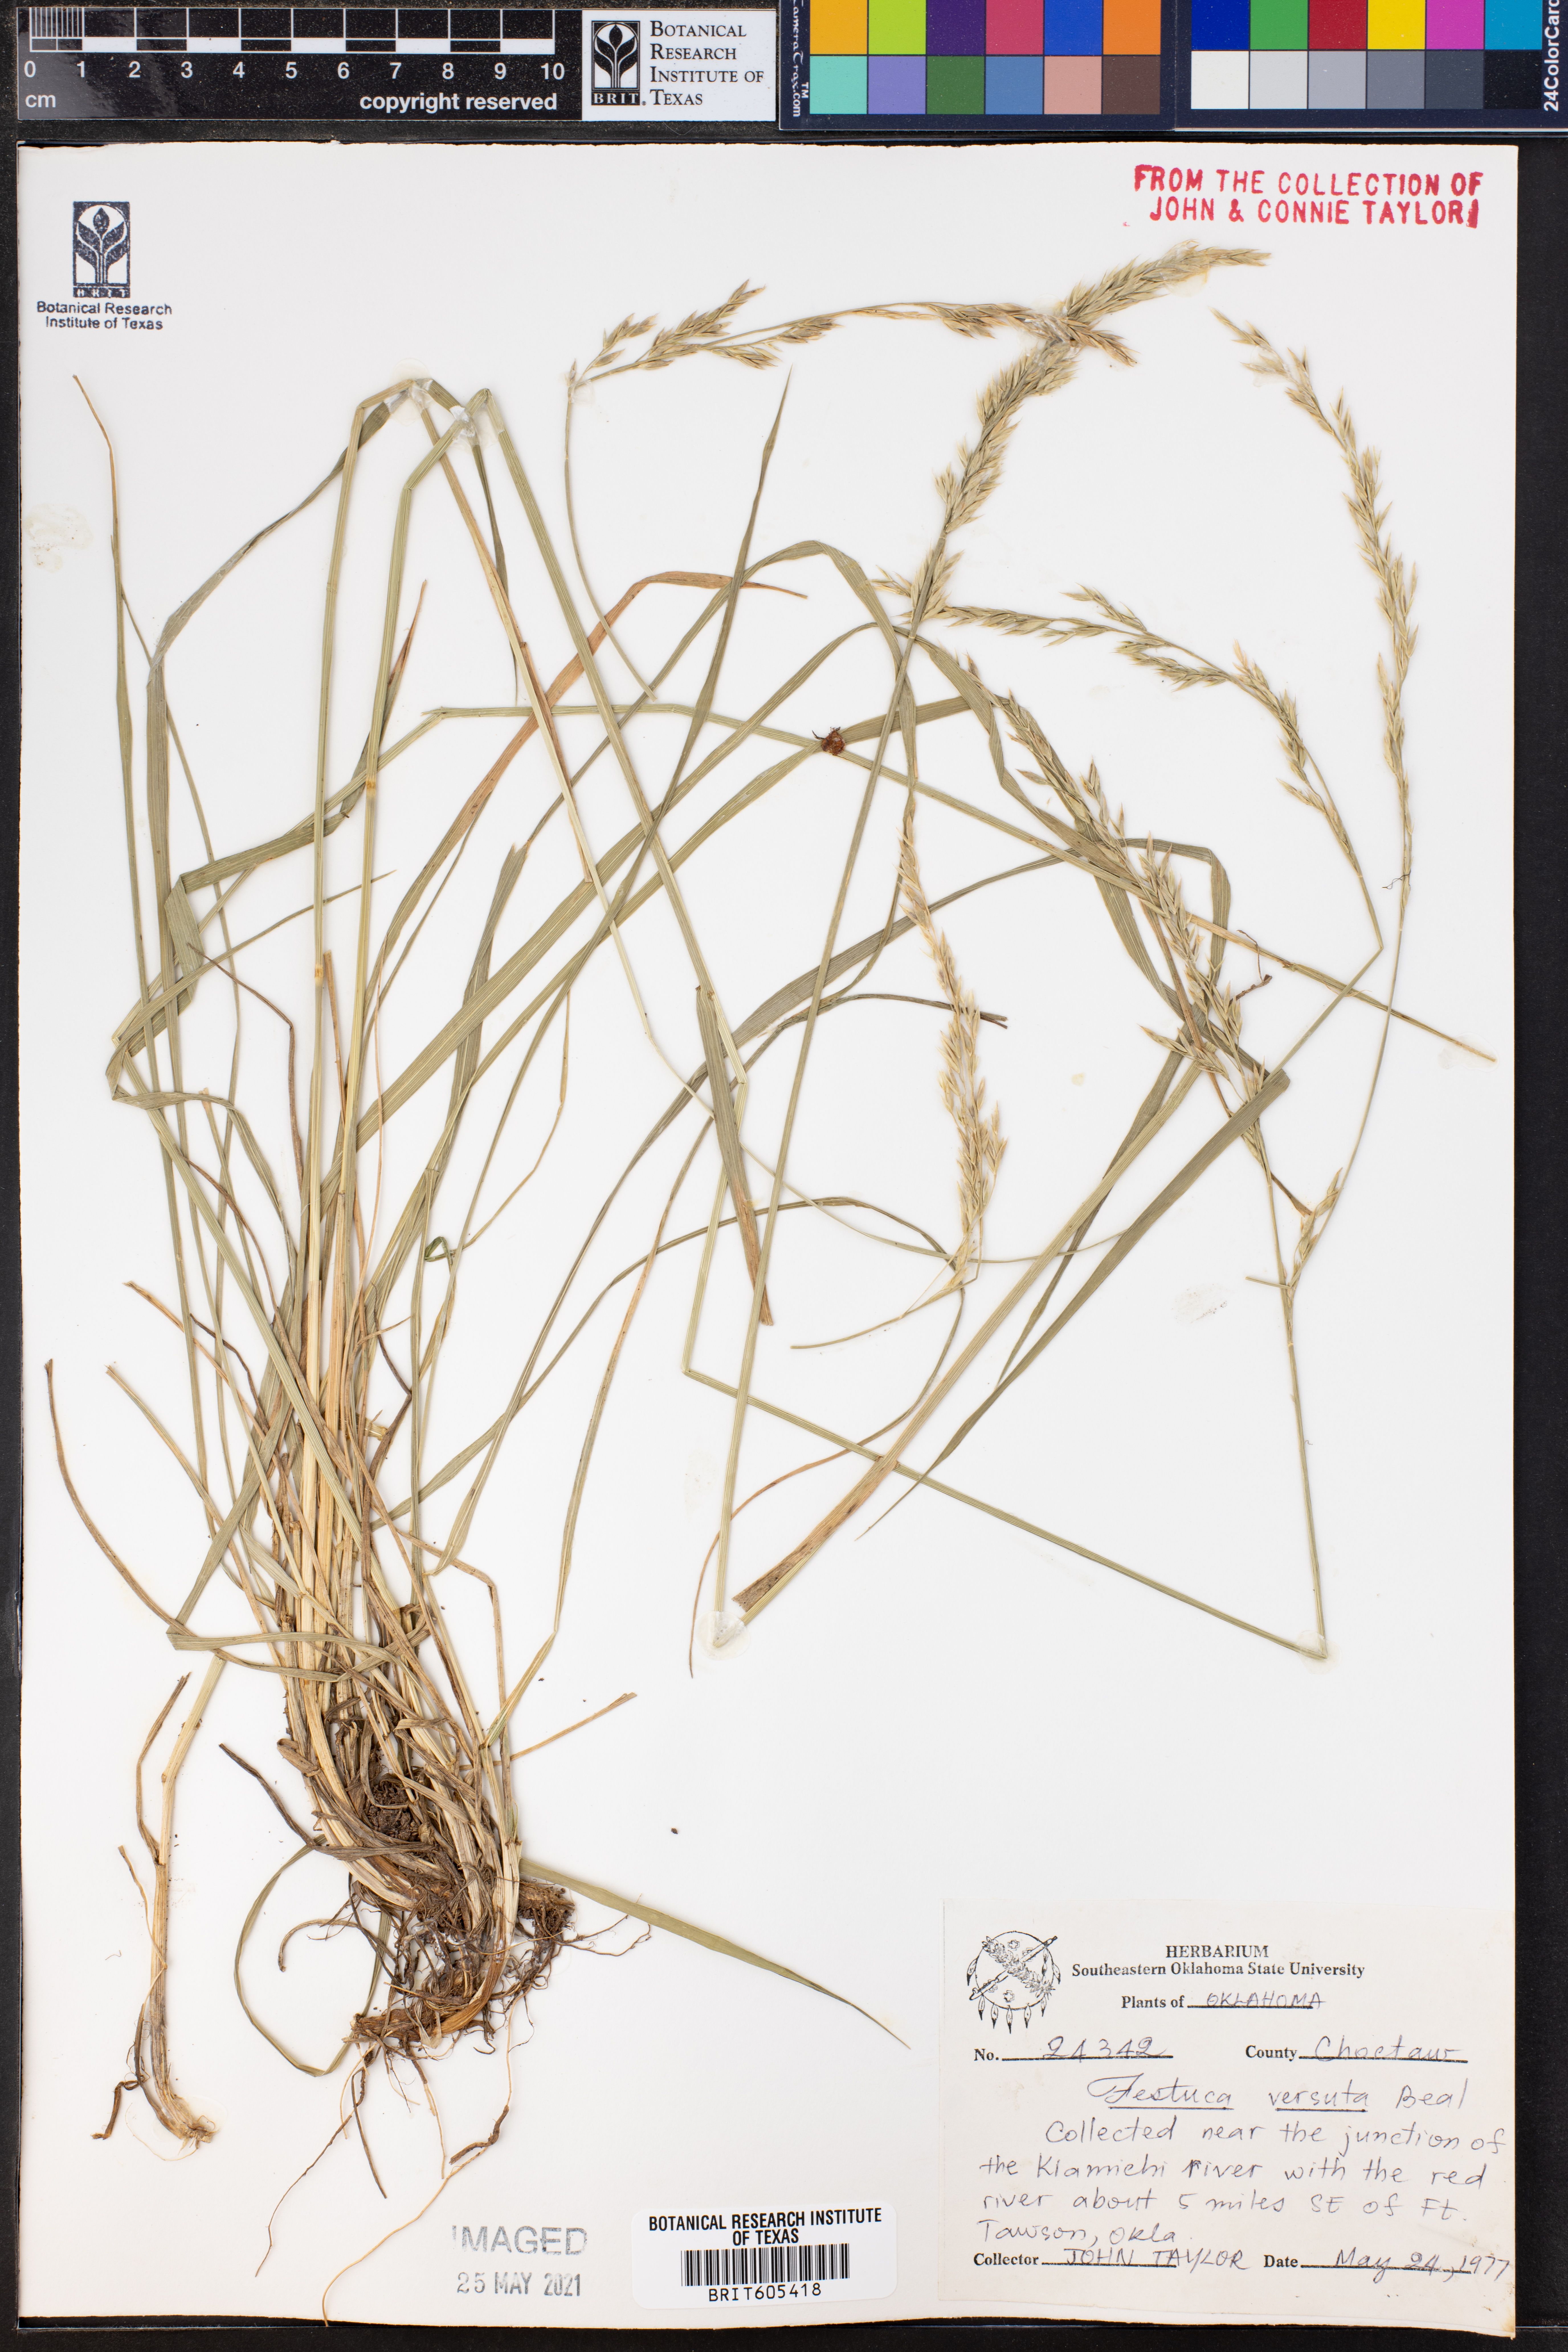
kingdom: Plantae
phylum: Tracheophyta
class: Liliopsida
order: Poales
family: Poaceae
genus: Festuca
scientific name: Festuca versuta
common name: Texas fescue
